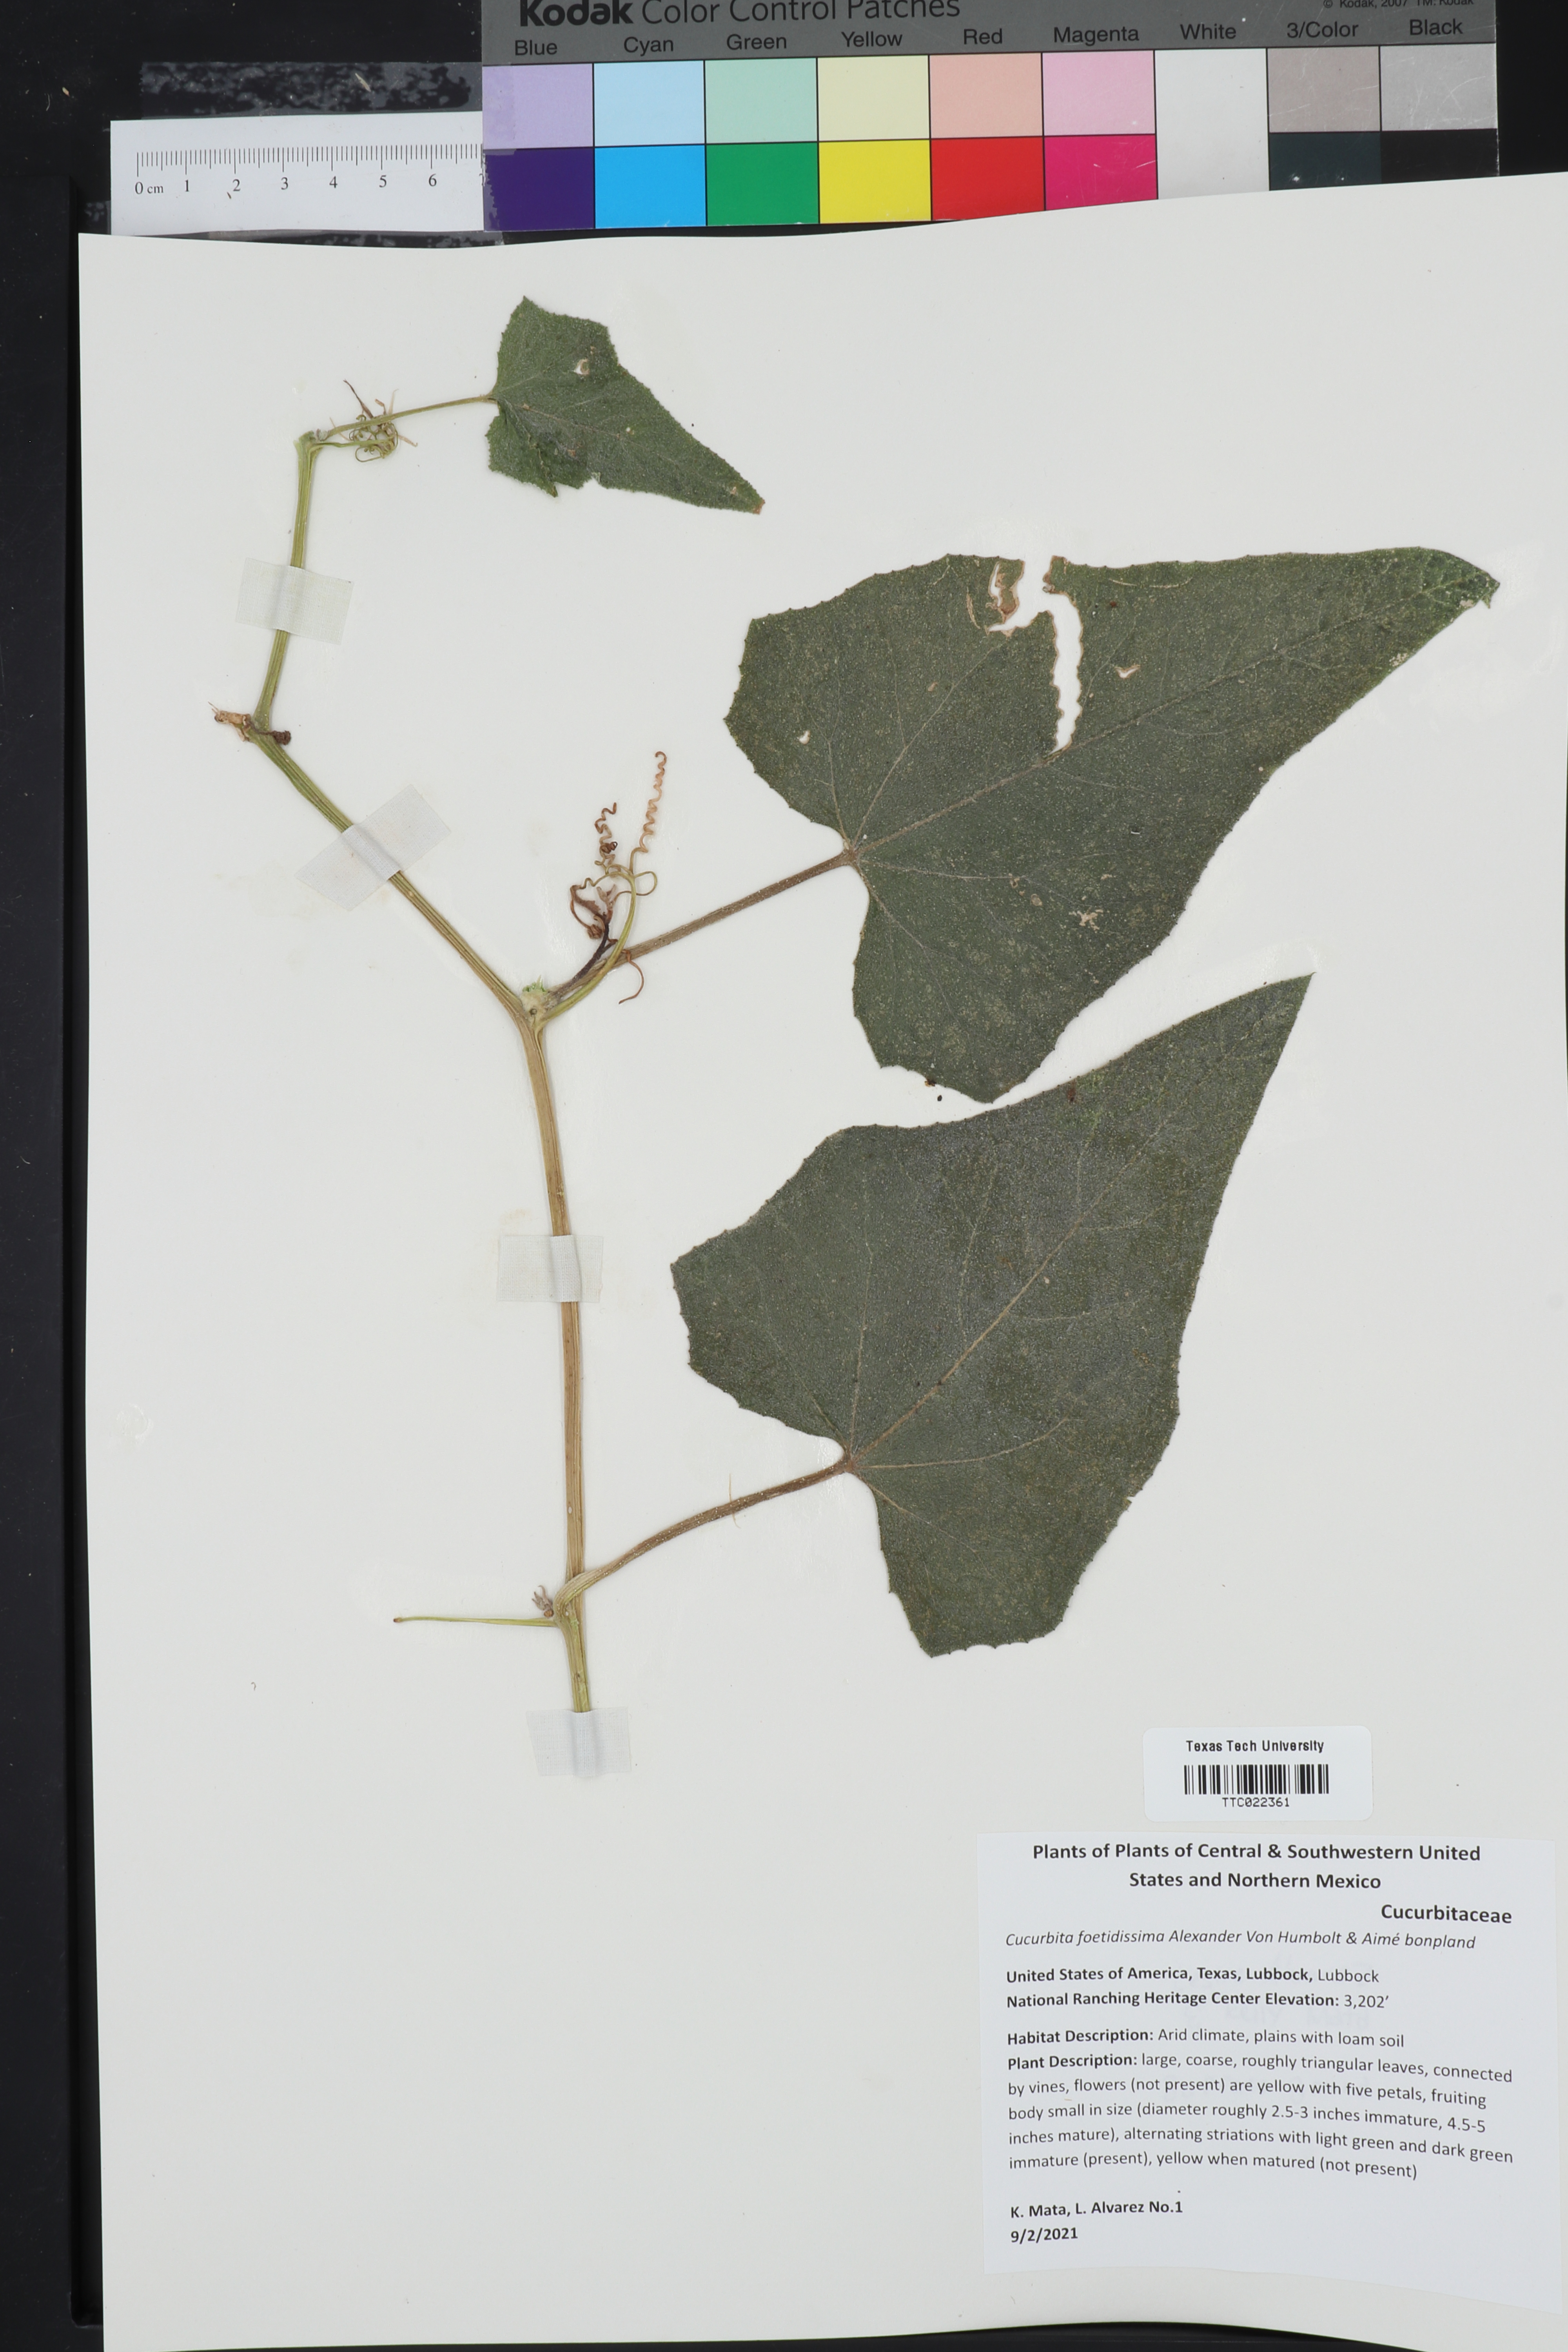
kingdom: Plantae
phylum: Tracheophyta
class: Magnoliopsida
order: Cucurbitales
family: Cucurbitaceae
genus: Cucurbita
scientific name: Cucurbita foetidissima
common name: Buffalo gourd
